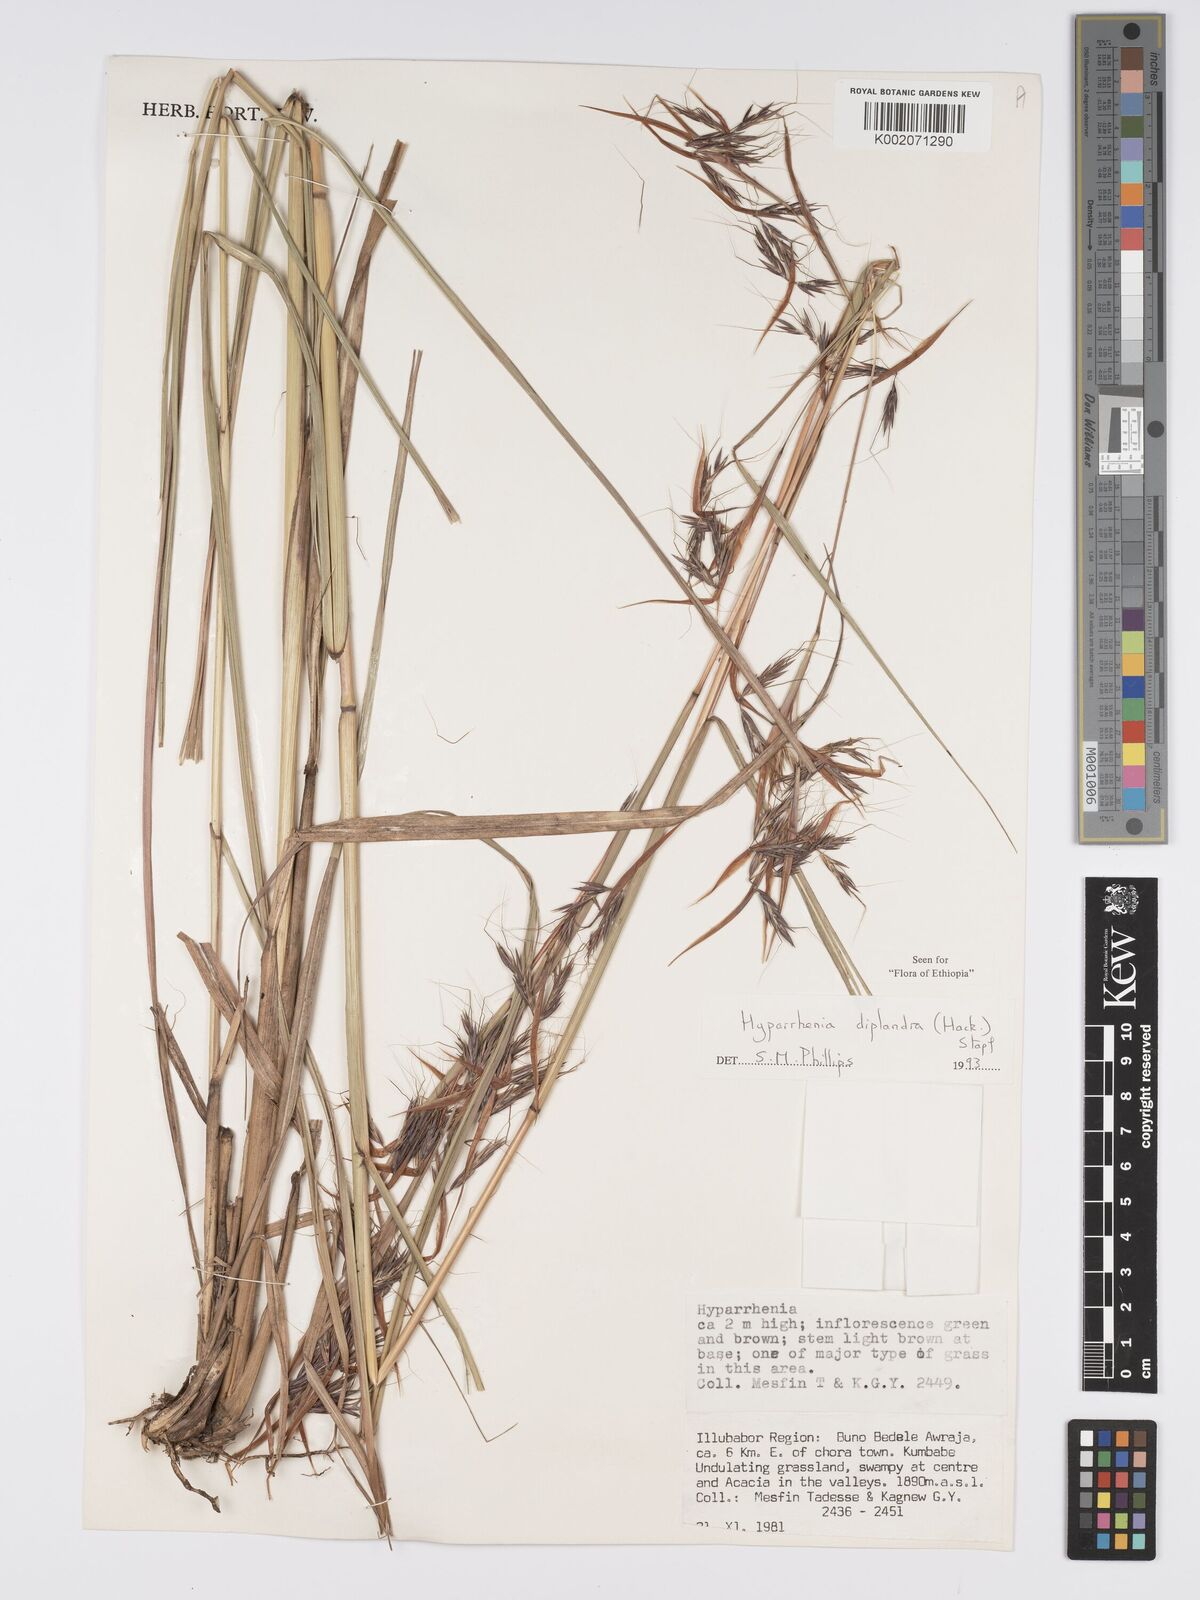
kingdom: Plantae
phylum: Tracheophyta
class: Liliopsida
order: Poales
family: Poaceae
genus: Hyparrhenia
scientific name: Hyparrhenia diplandra
